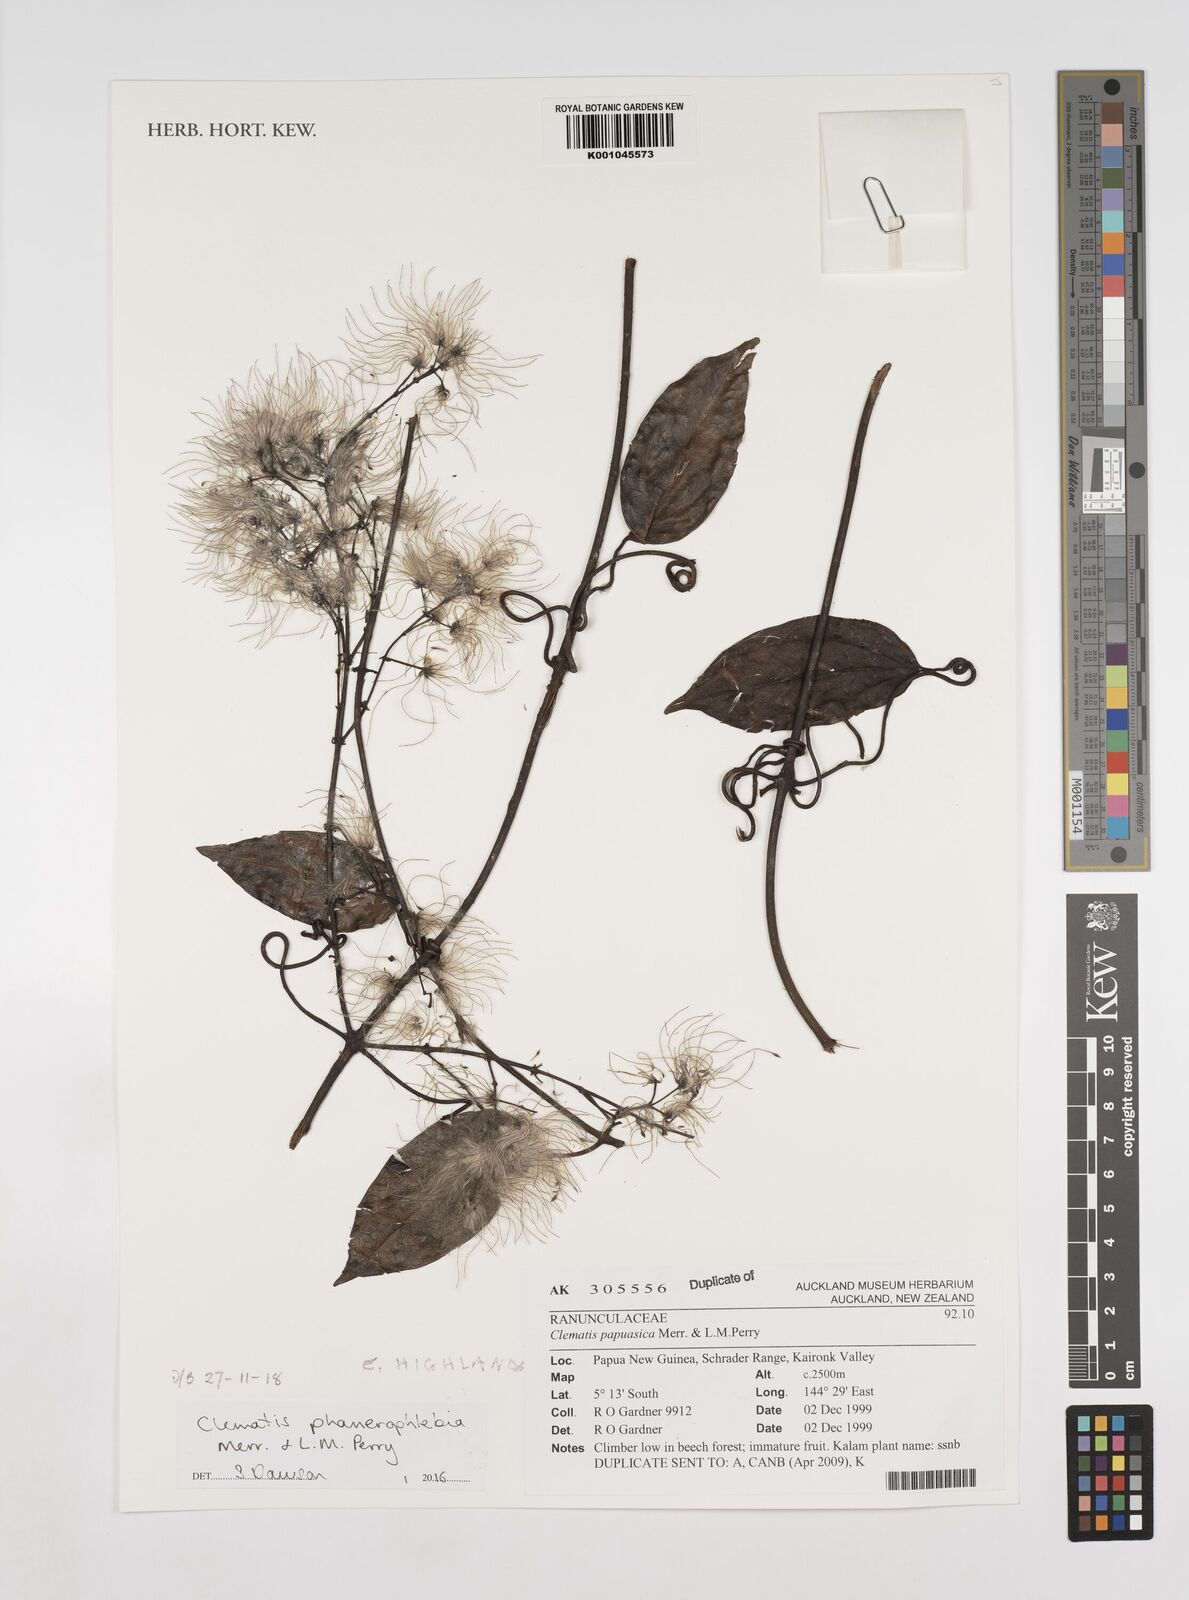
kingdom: Plantae
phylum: Tracheophyta
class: Magnoliopsida
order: Ranunculales
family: Ranunculaceae
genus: Clematis
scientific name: Clematis phanerophlebia
